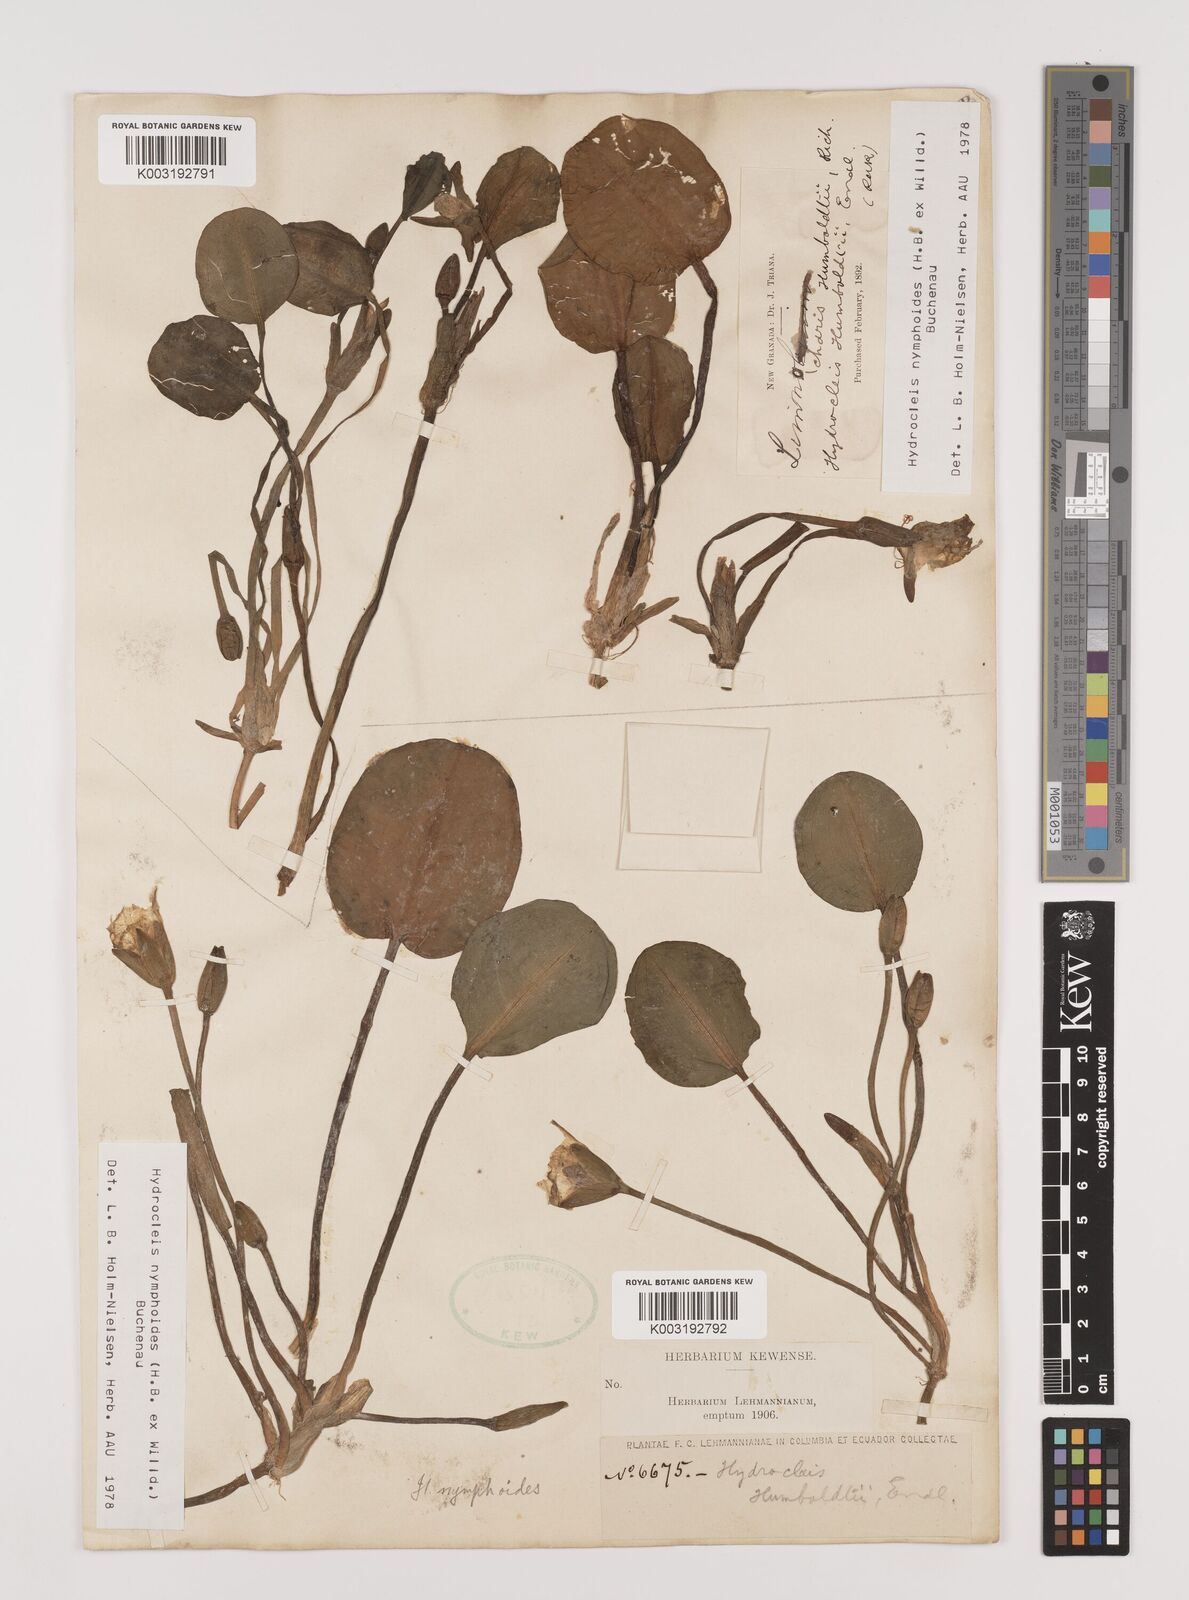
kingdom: Plantae
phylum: Tracheophyta
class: Liliopsida
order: Alismatales
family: Alismataceae
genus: Hydrocleys
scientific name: Hydrocleys nymphoides
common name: Water-poppy
